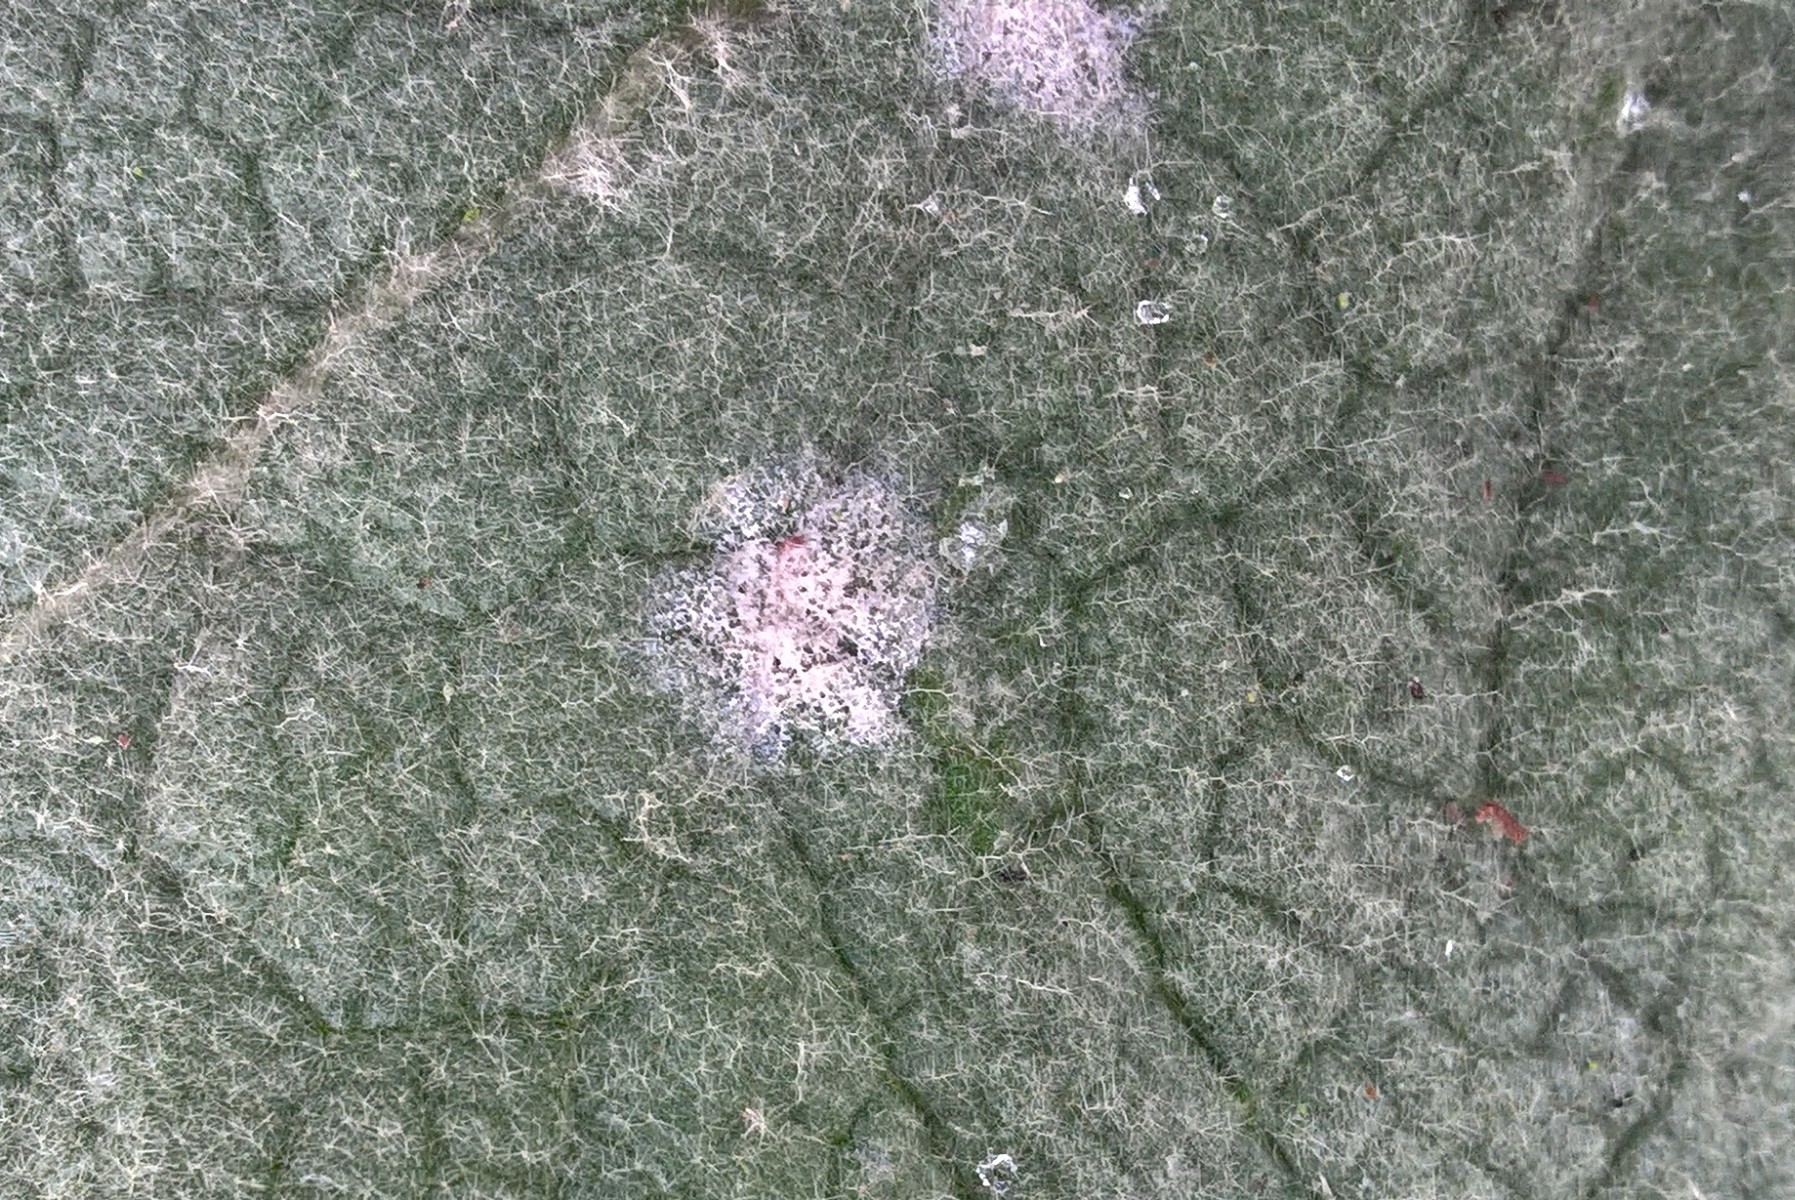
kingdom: Fungi
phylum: Ascomycota
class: Leotiomycetes
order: Helotiales
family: Erysiphaceae
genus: Golovinomyces
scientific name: Golovinomyces verbasci
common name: kongelys-meldug
